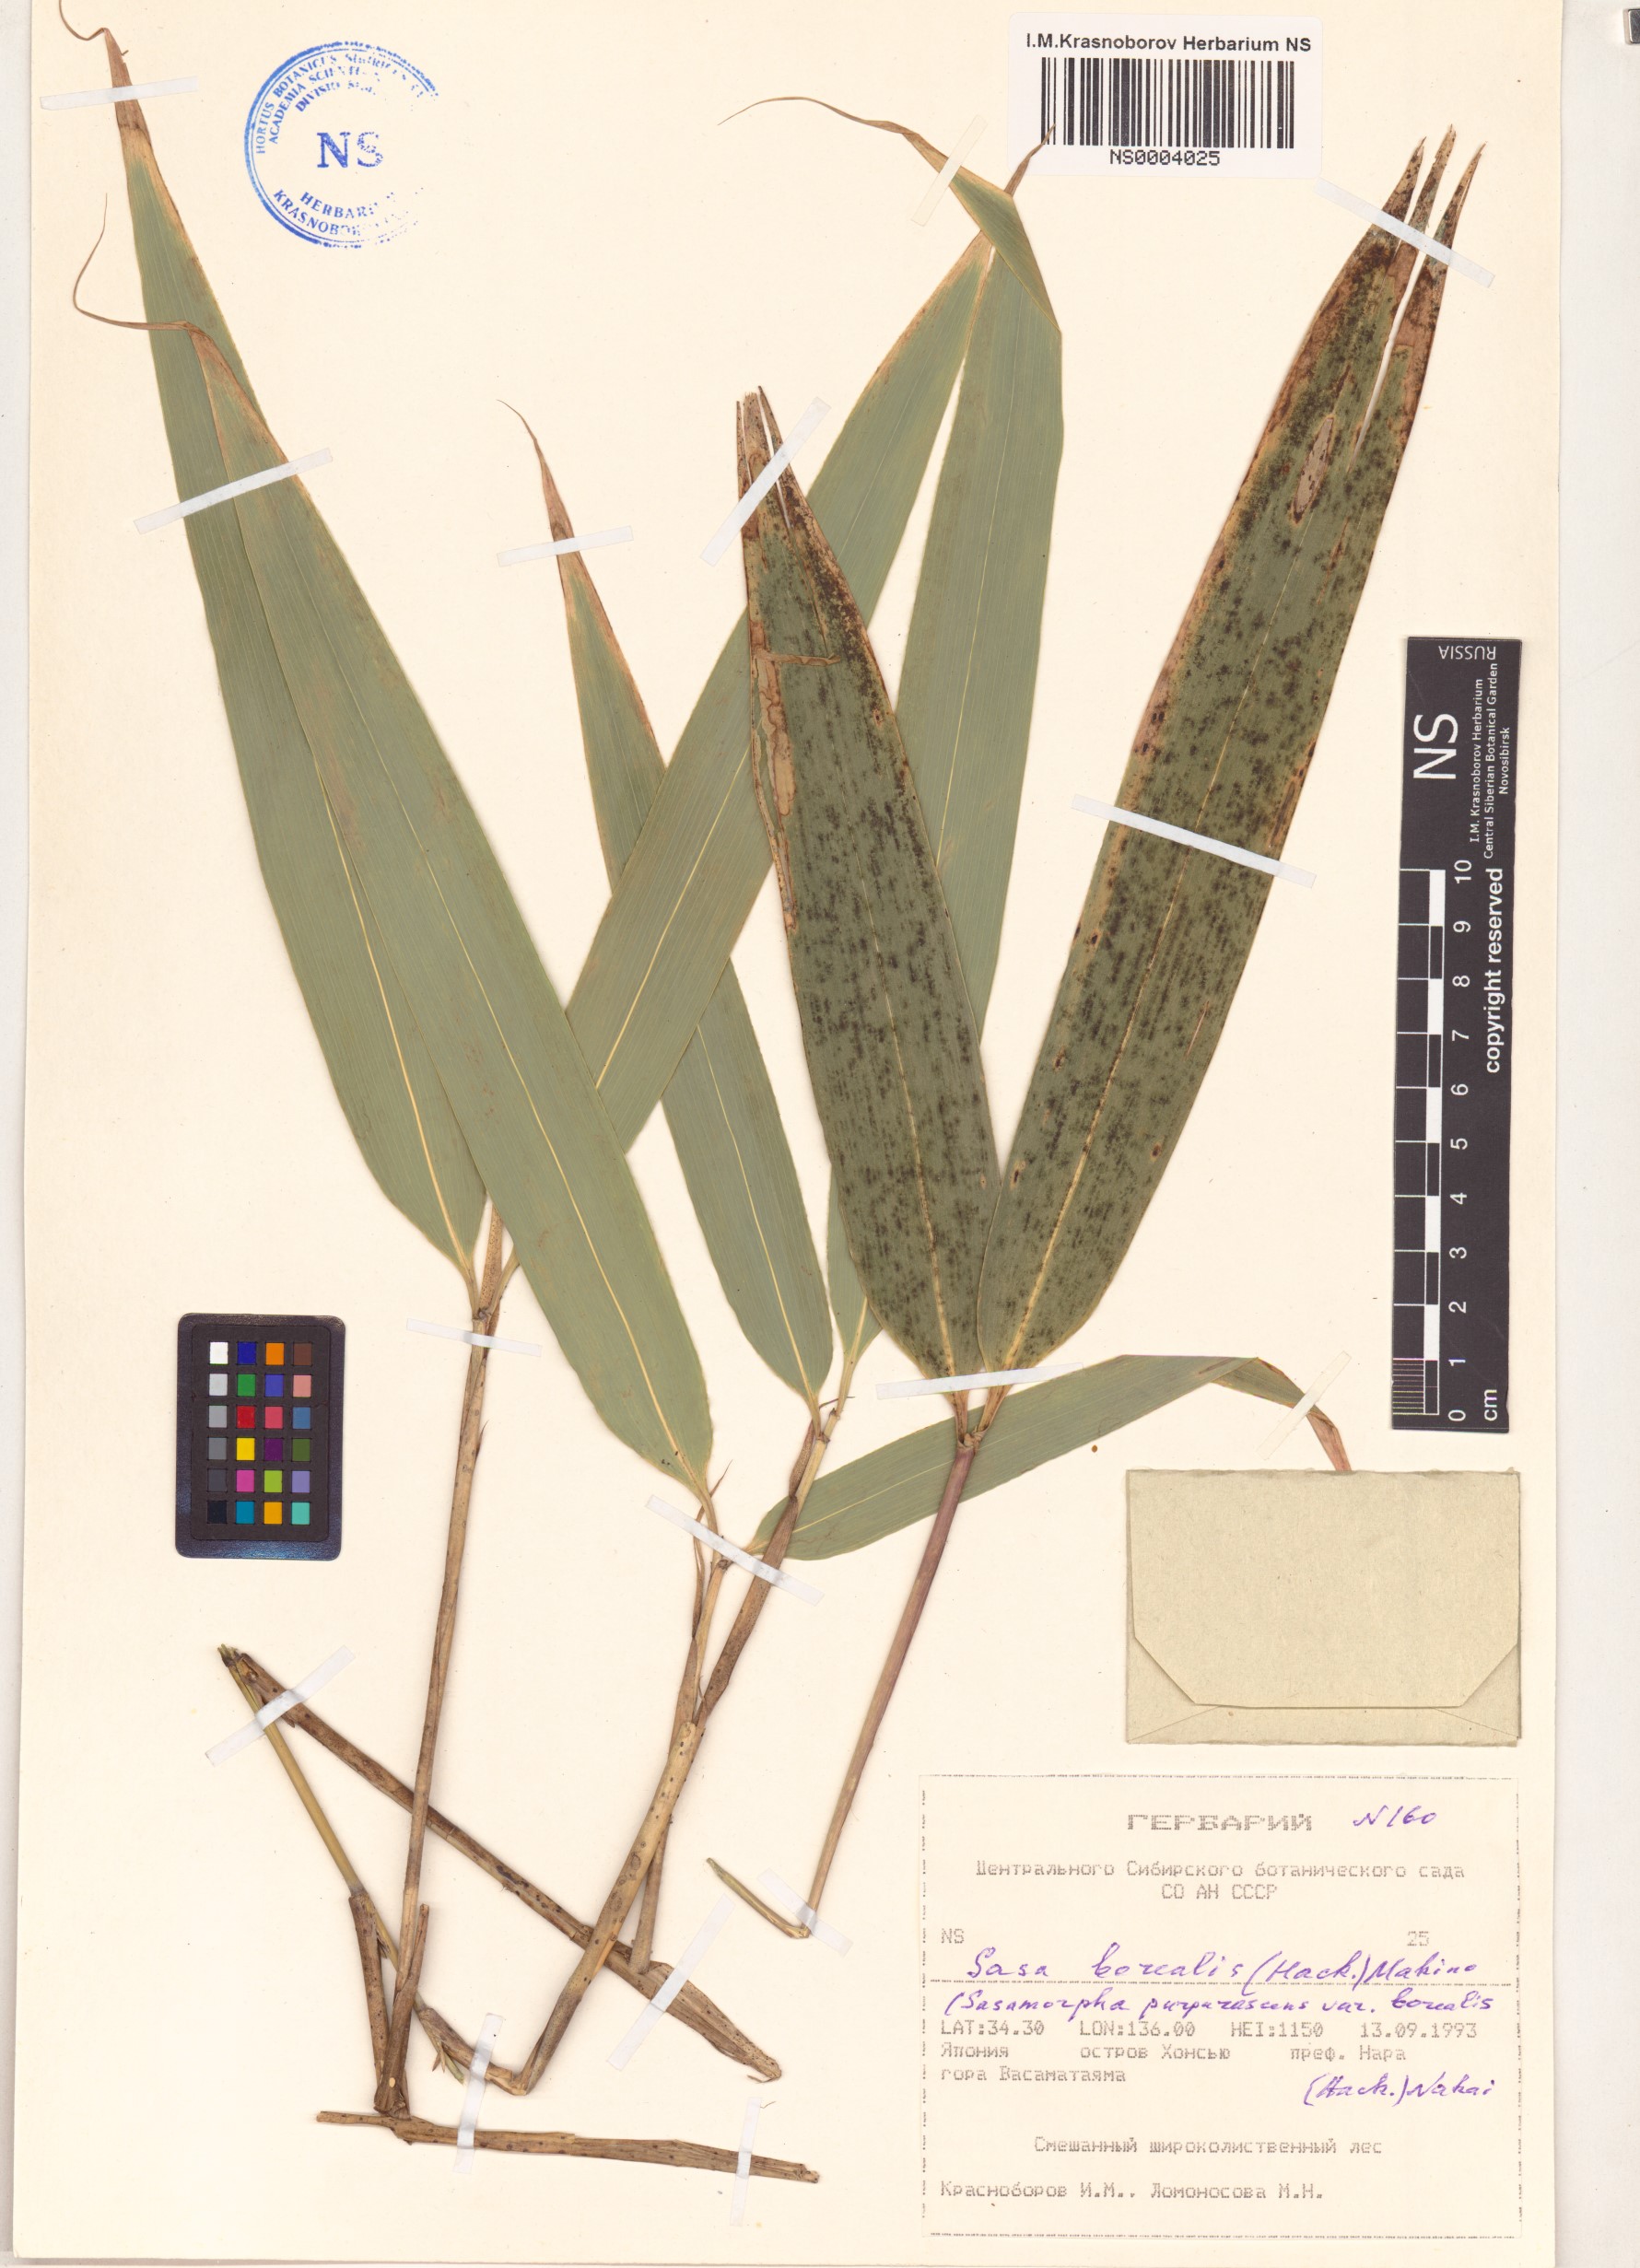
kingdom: Plantae
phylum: Tracheophyta
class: Liliopsida
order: Poales
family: Poaceae
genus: Sasamorpha
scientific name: Sasamorpha borealis
